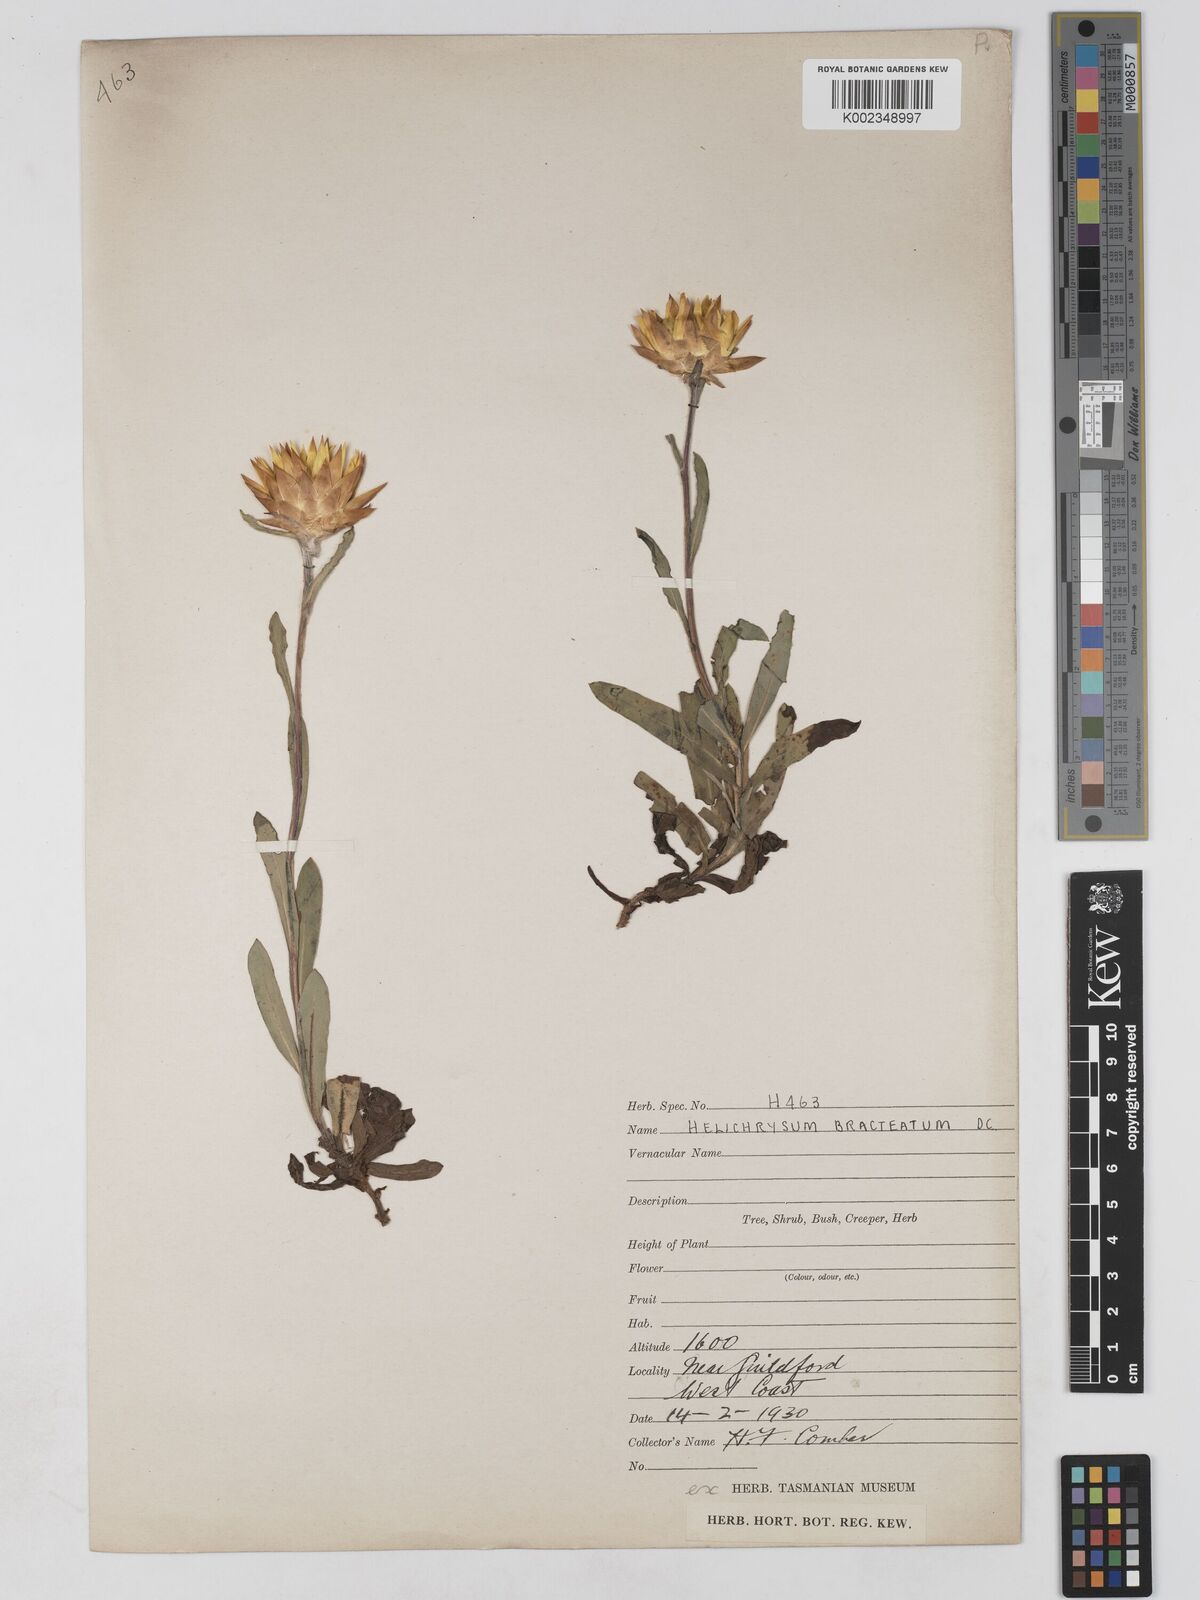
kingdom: Plantae
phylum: Tracheophyta
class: Magnoliopsida
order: Asterales
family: Asteraceae
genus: Xerochrysum
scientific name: Xerochrysum bracteatum
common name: Bracted strawflower
